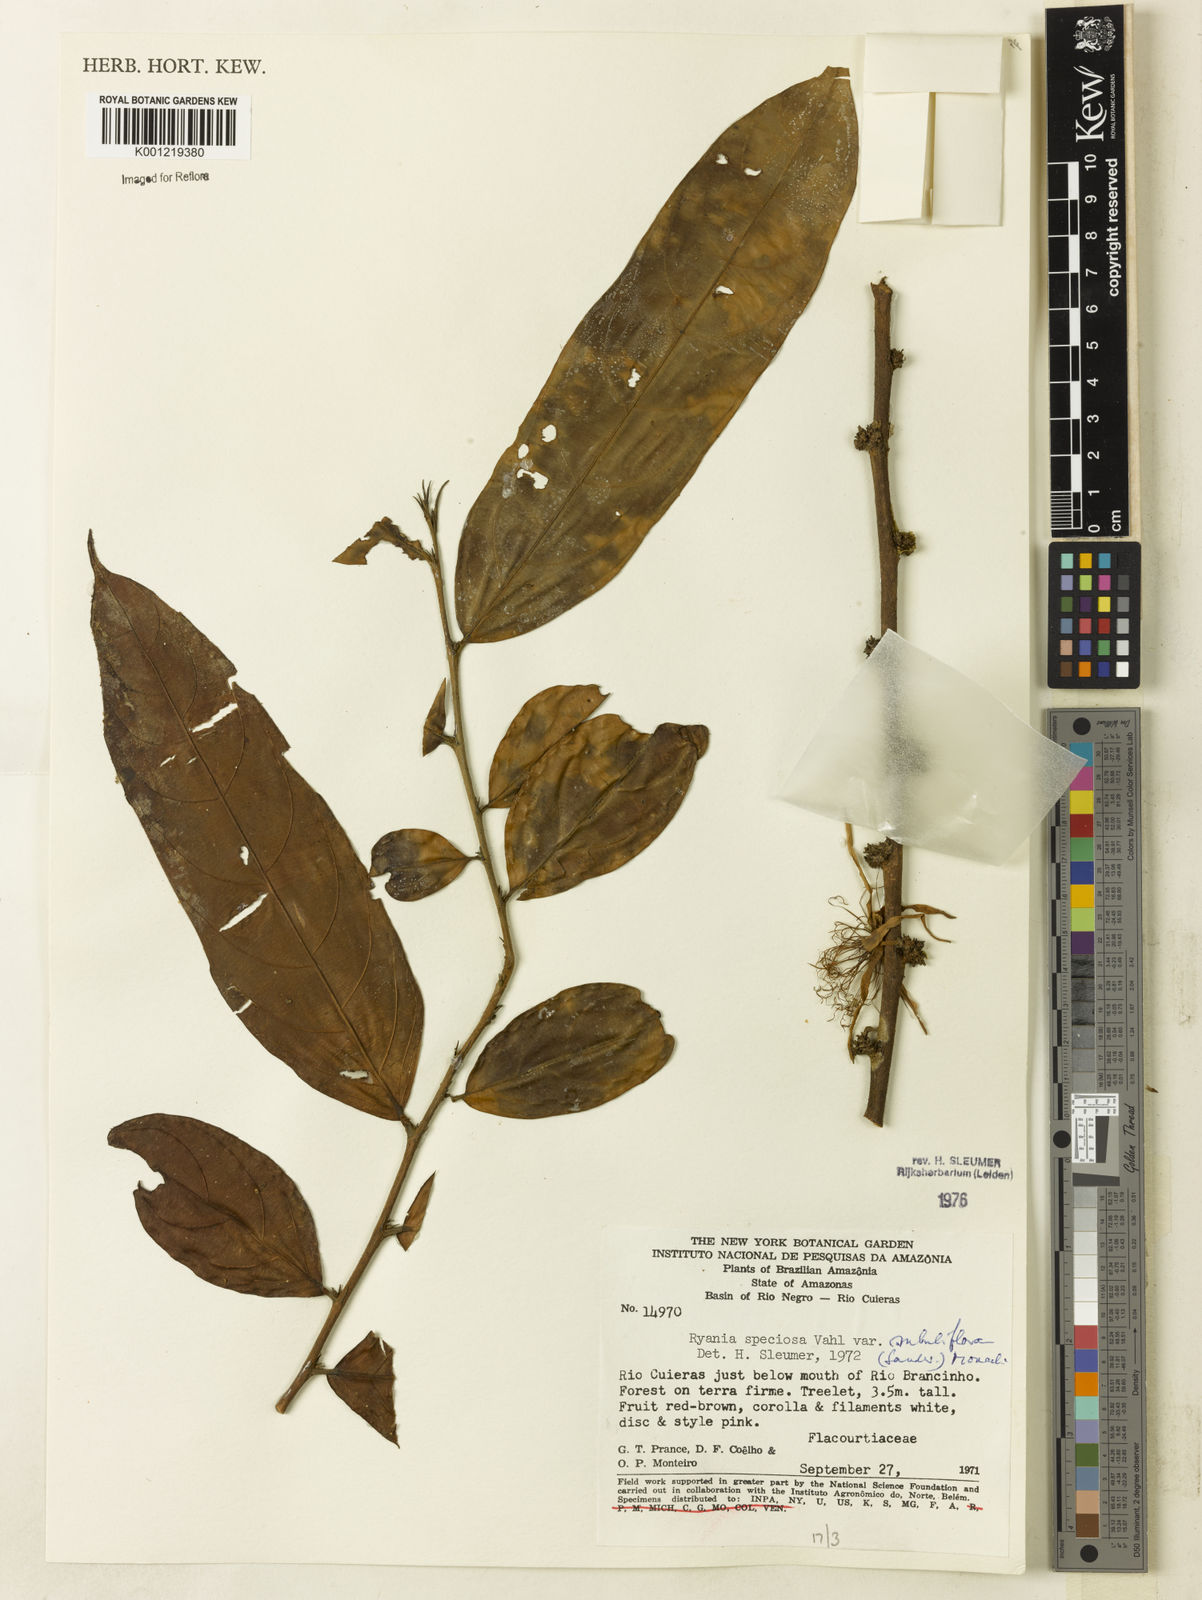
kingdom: Plantae
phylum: Tracheophyta
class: Magnoliopsida
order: Malpighiales
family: Salicaceae
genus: Ryania
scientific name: Ryania speciosa
